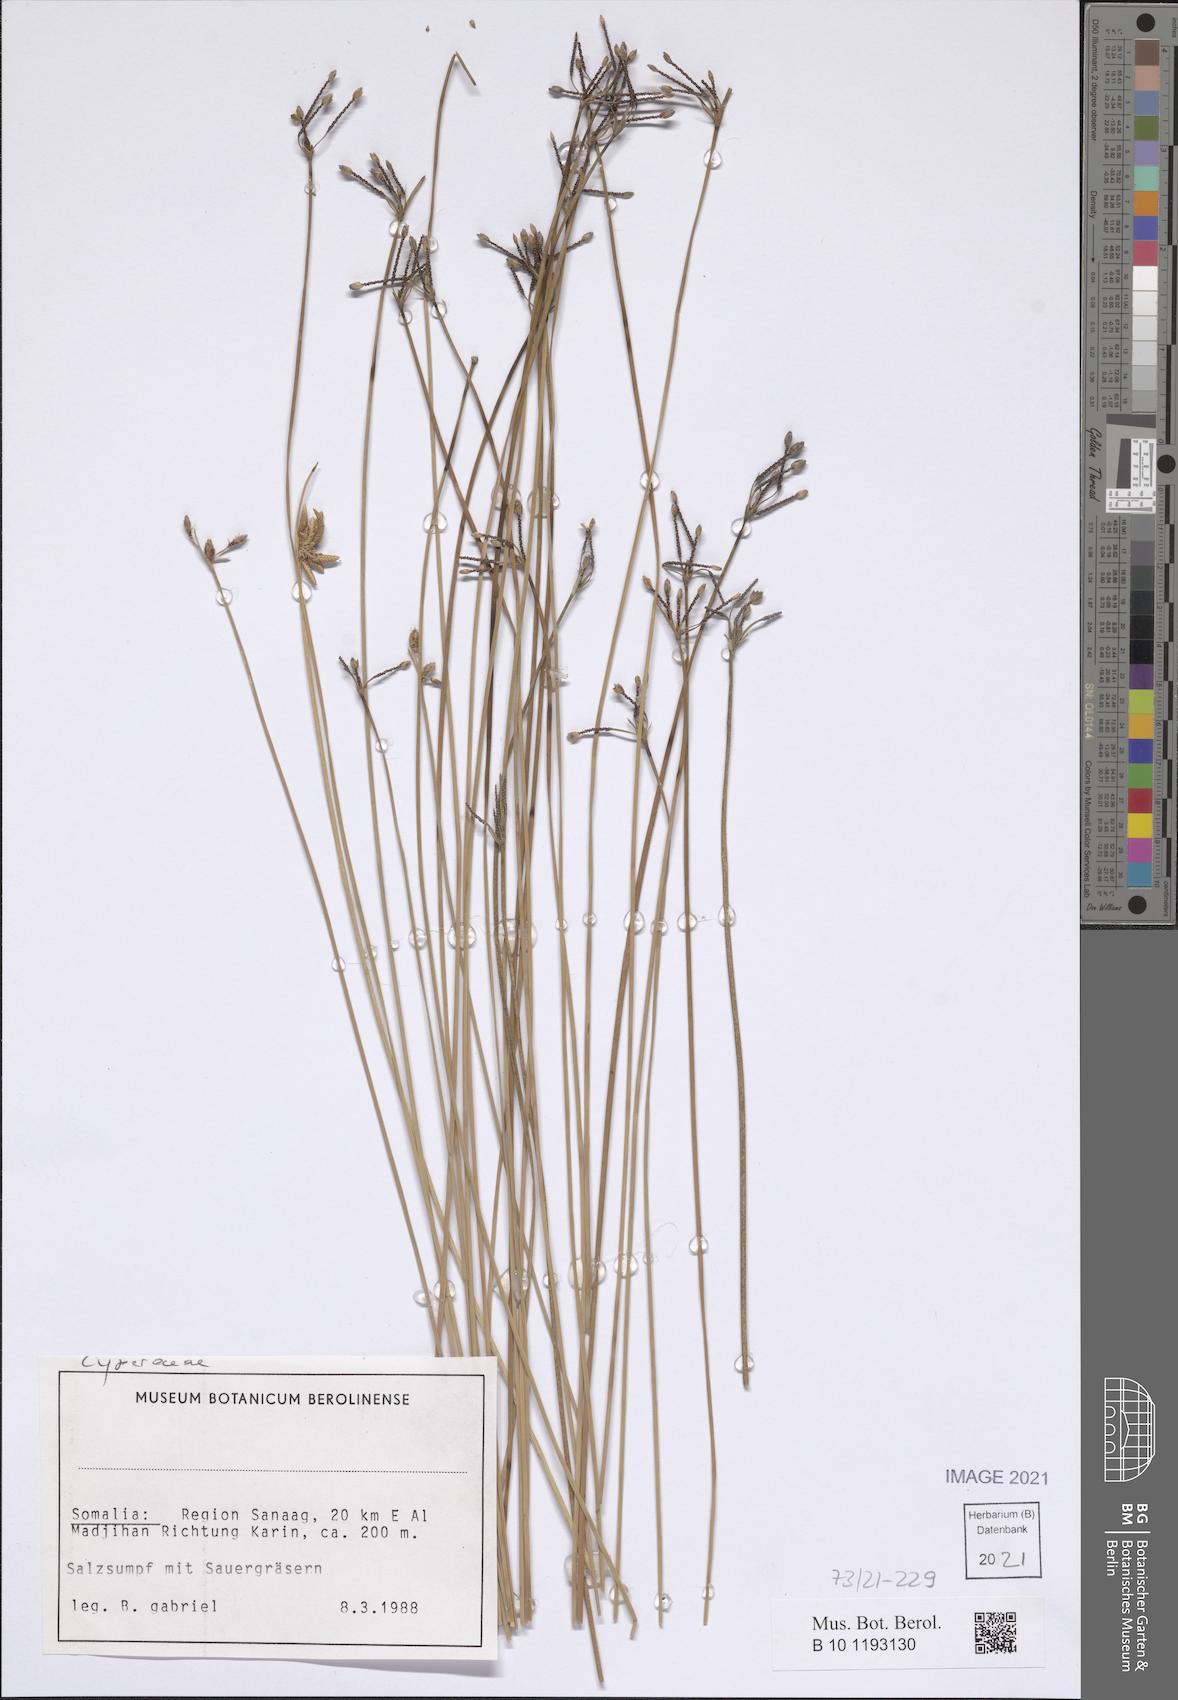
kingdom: Plantae
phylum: Tracheophyta
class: Liliopsida
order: Poales
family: Cyperaceae
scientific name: Cyperaceae
